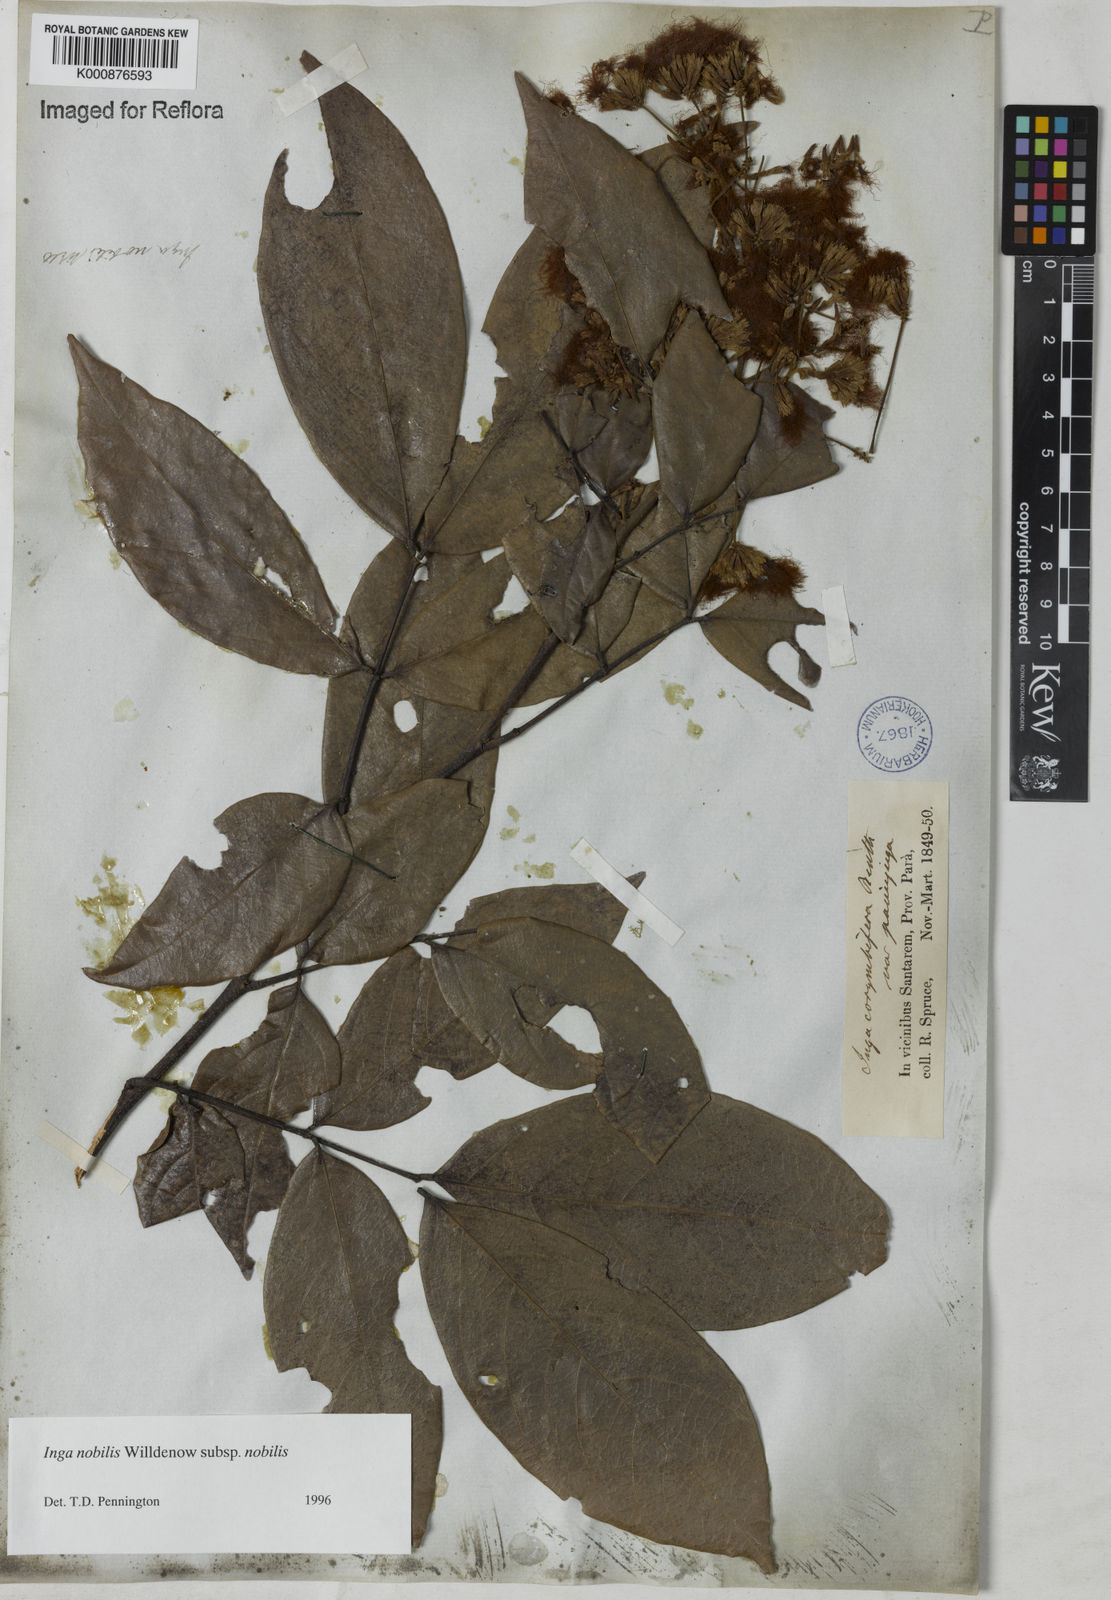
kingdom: Plantae
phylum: Tracheophyta
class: Magnoliopsida
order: Fabales
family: Fabaceae
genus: Inga
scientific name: Inga nobilis
